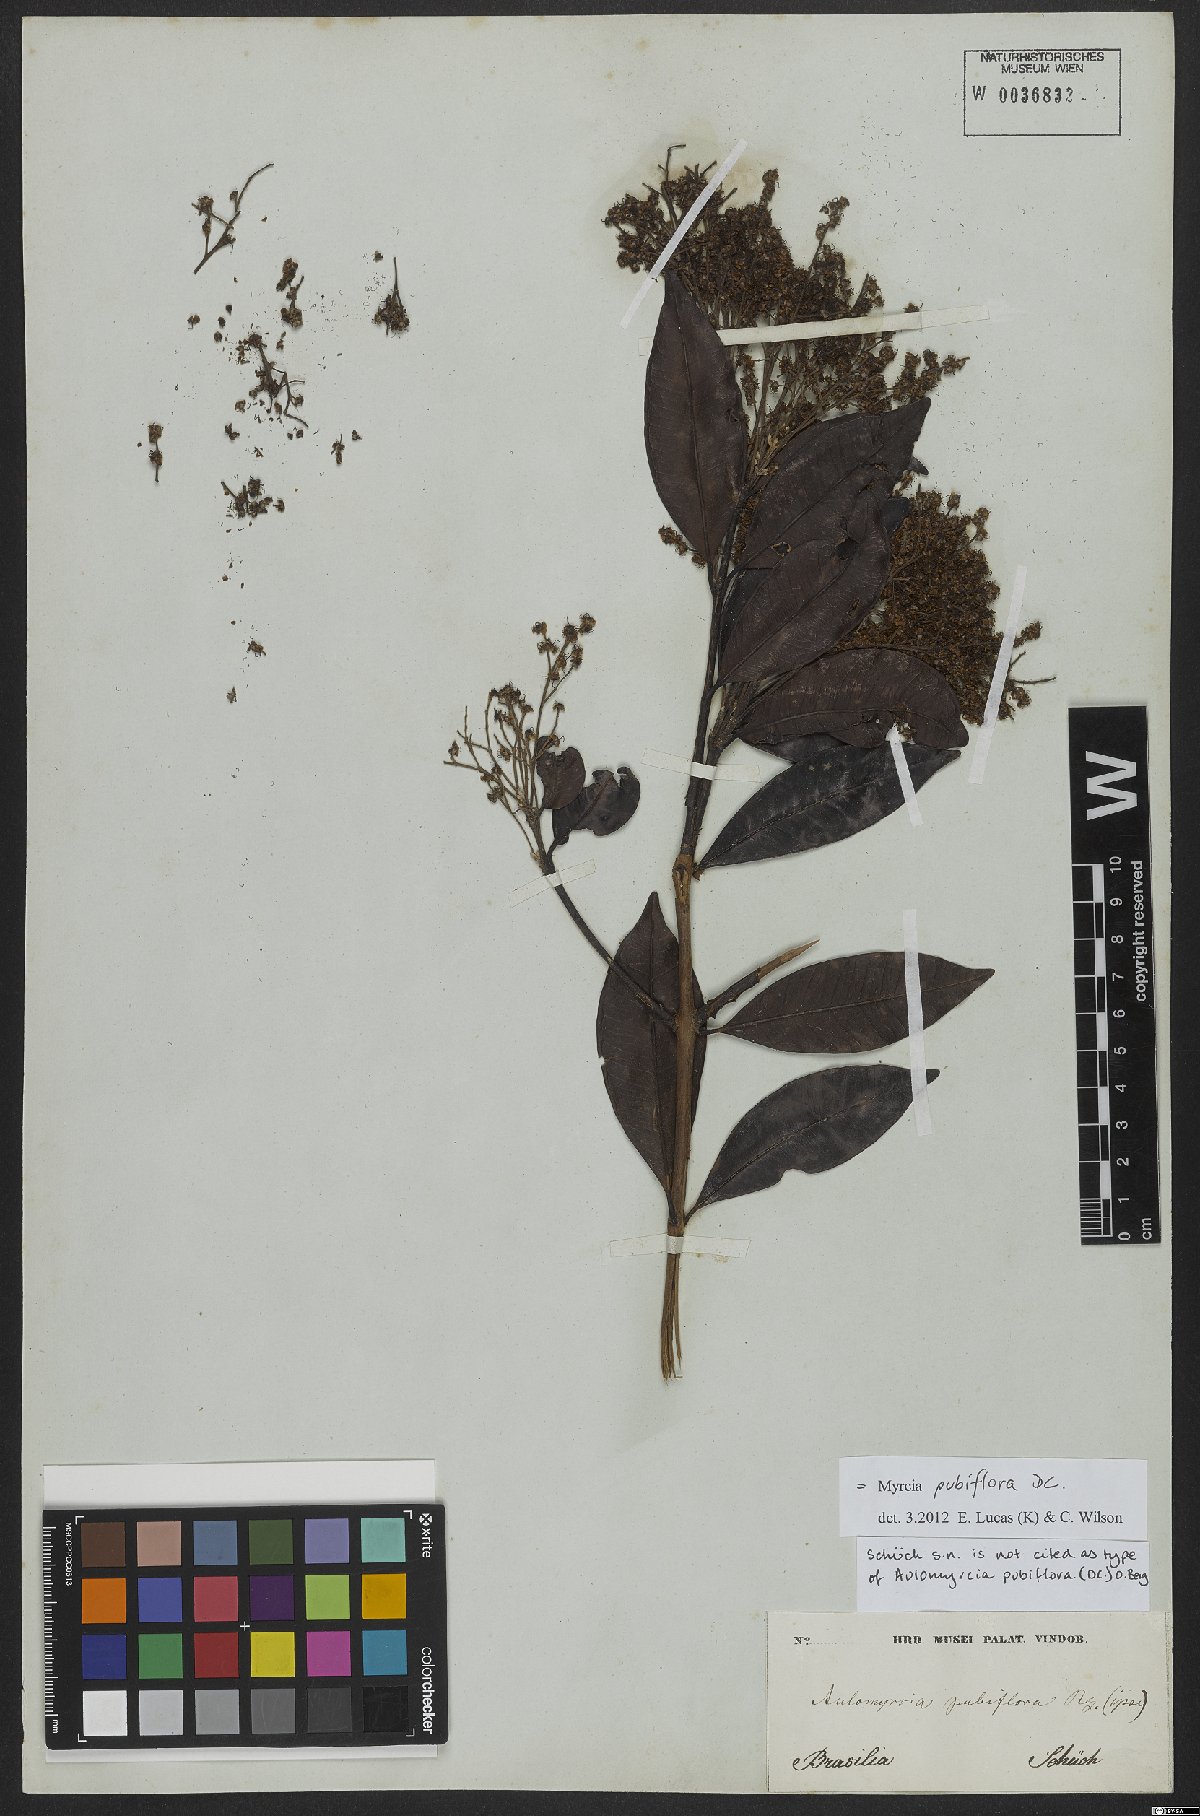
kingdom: Plantae
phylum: Tracheophyta
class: Magnoliopsida
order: Myrtales
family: Myrtaceae
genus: Myrcia
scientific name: Myrcia pubiflora
